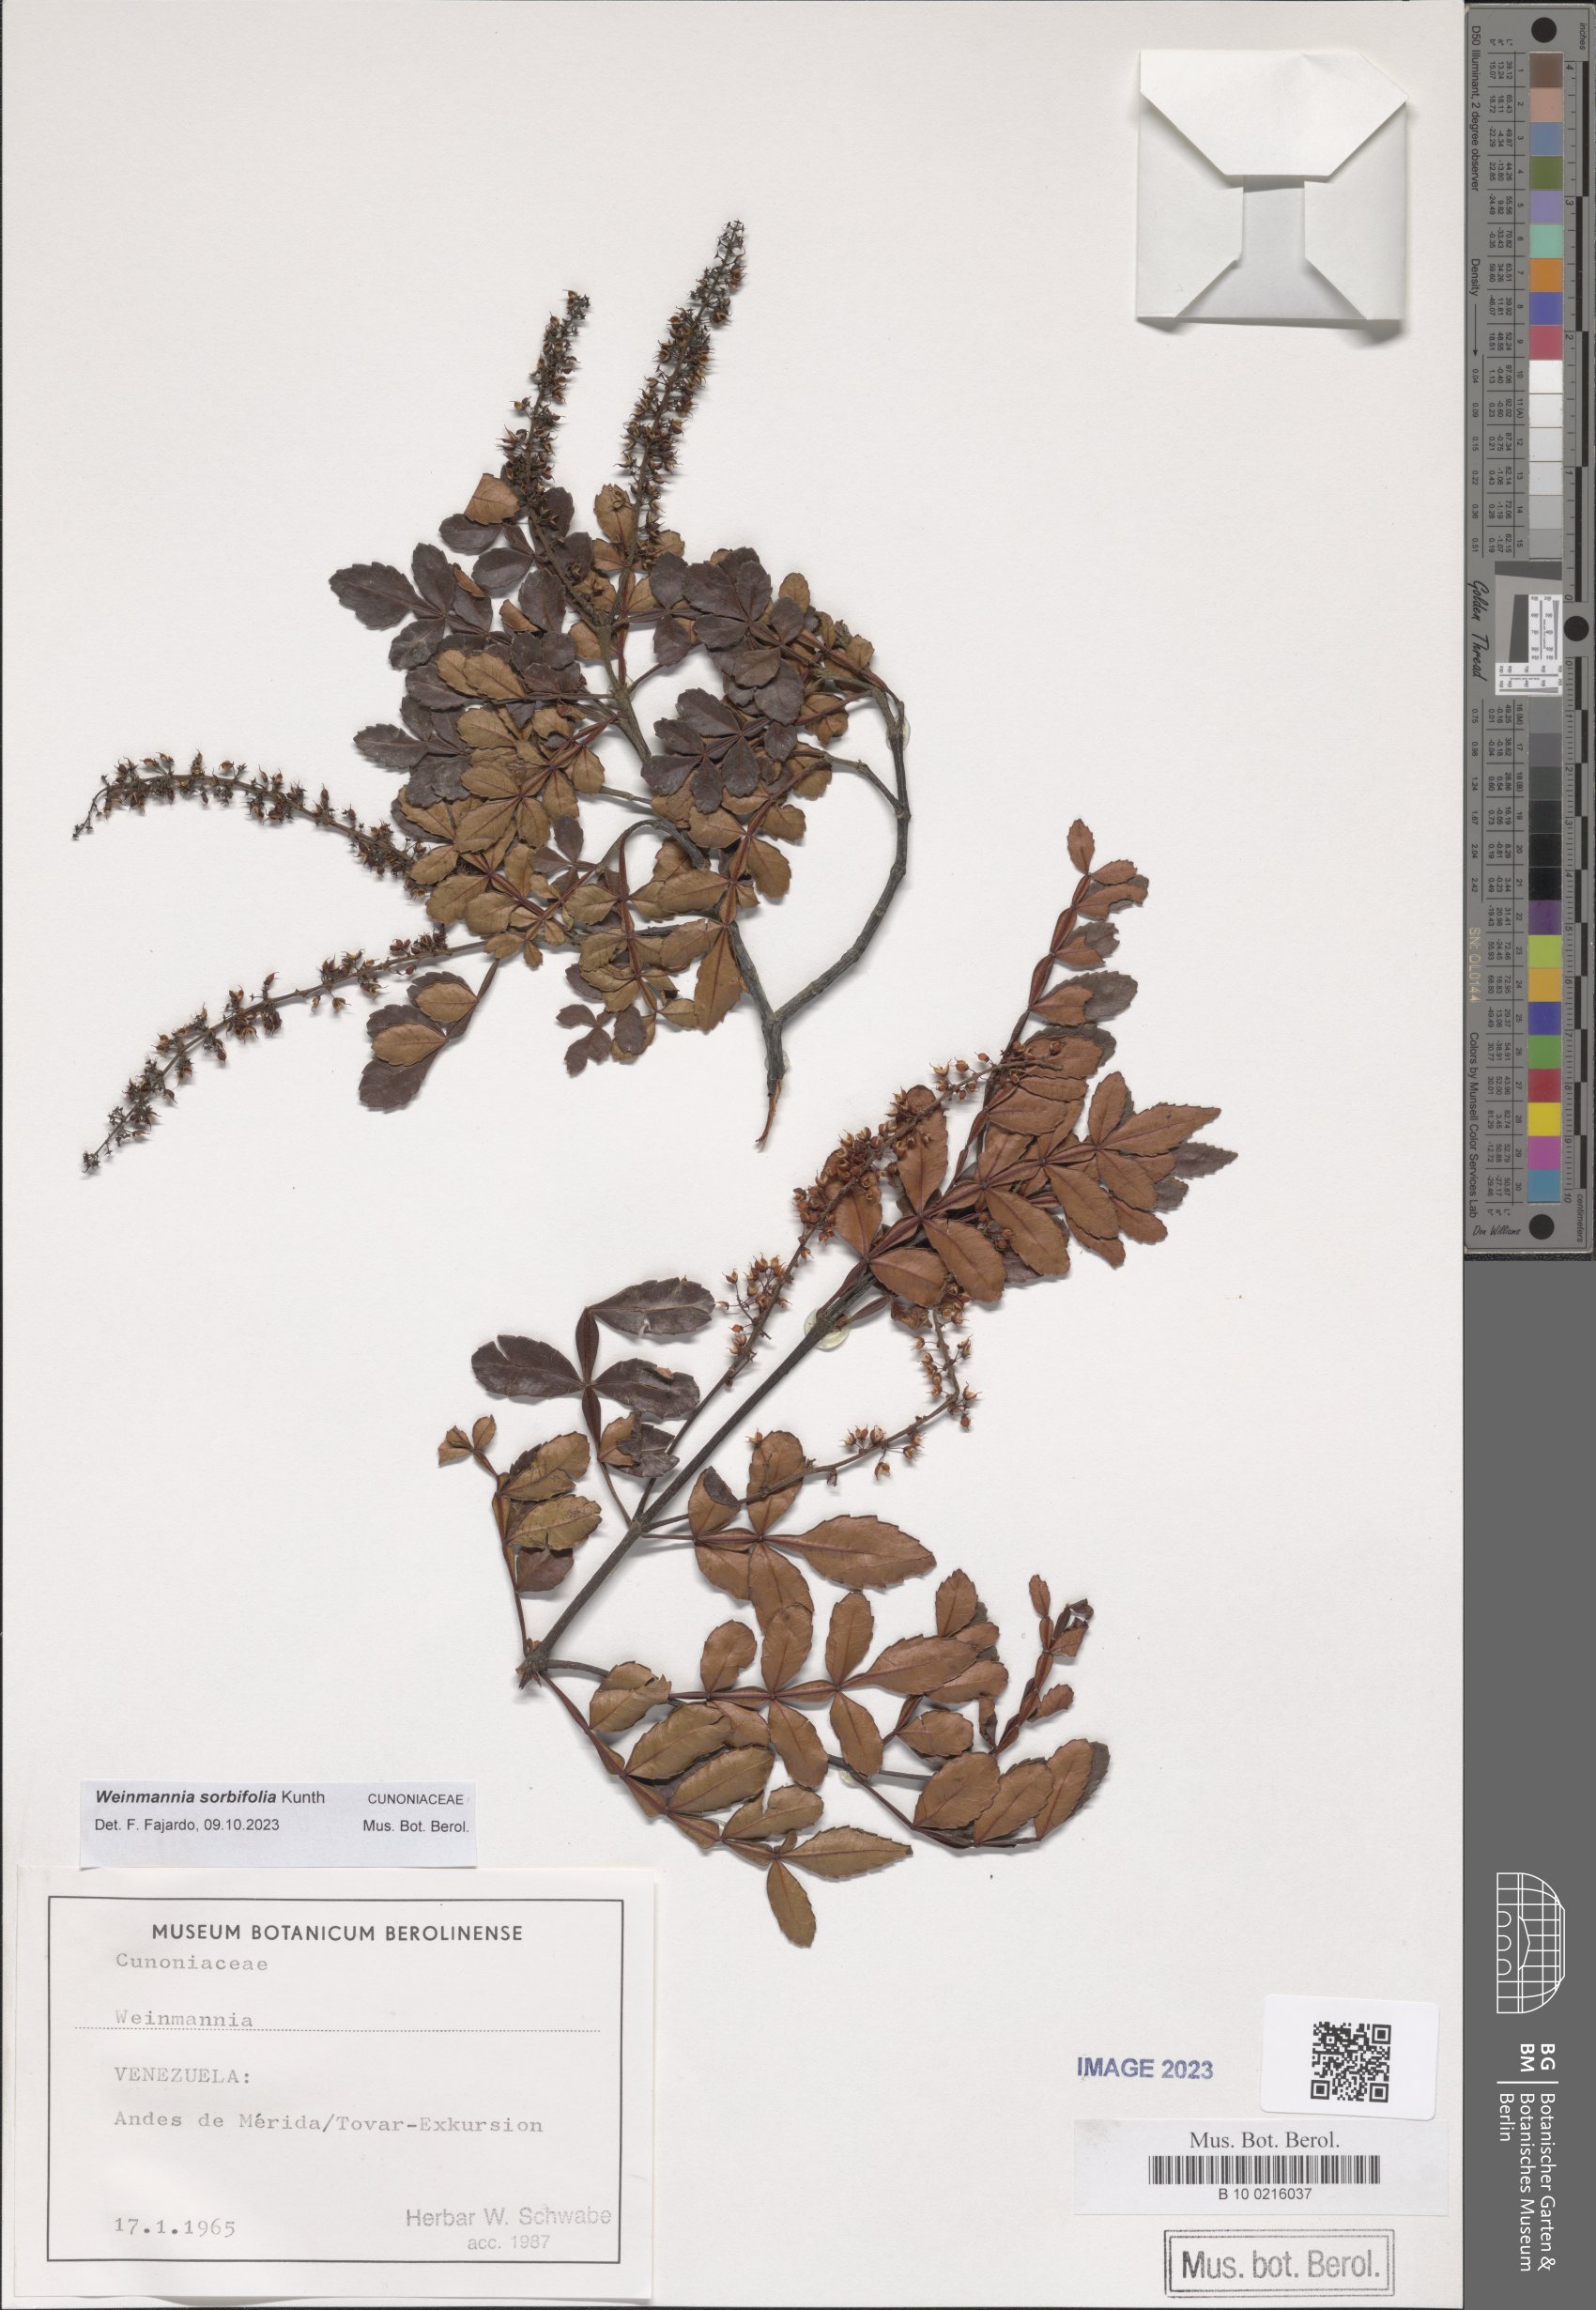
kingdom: Plantae
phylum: Tracheophyta
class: Magnoliopsida
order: Oxalidales
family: Cunoniaceae
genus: Weinmannia
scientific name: Weinmannia sorbifolia
